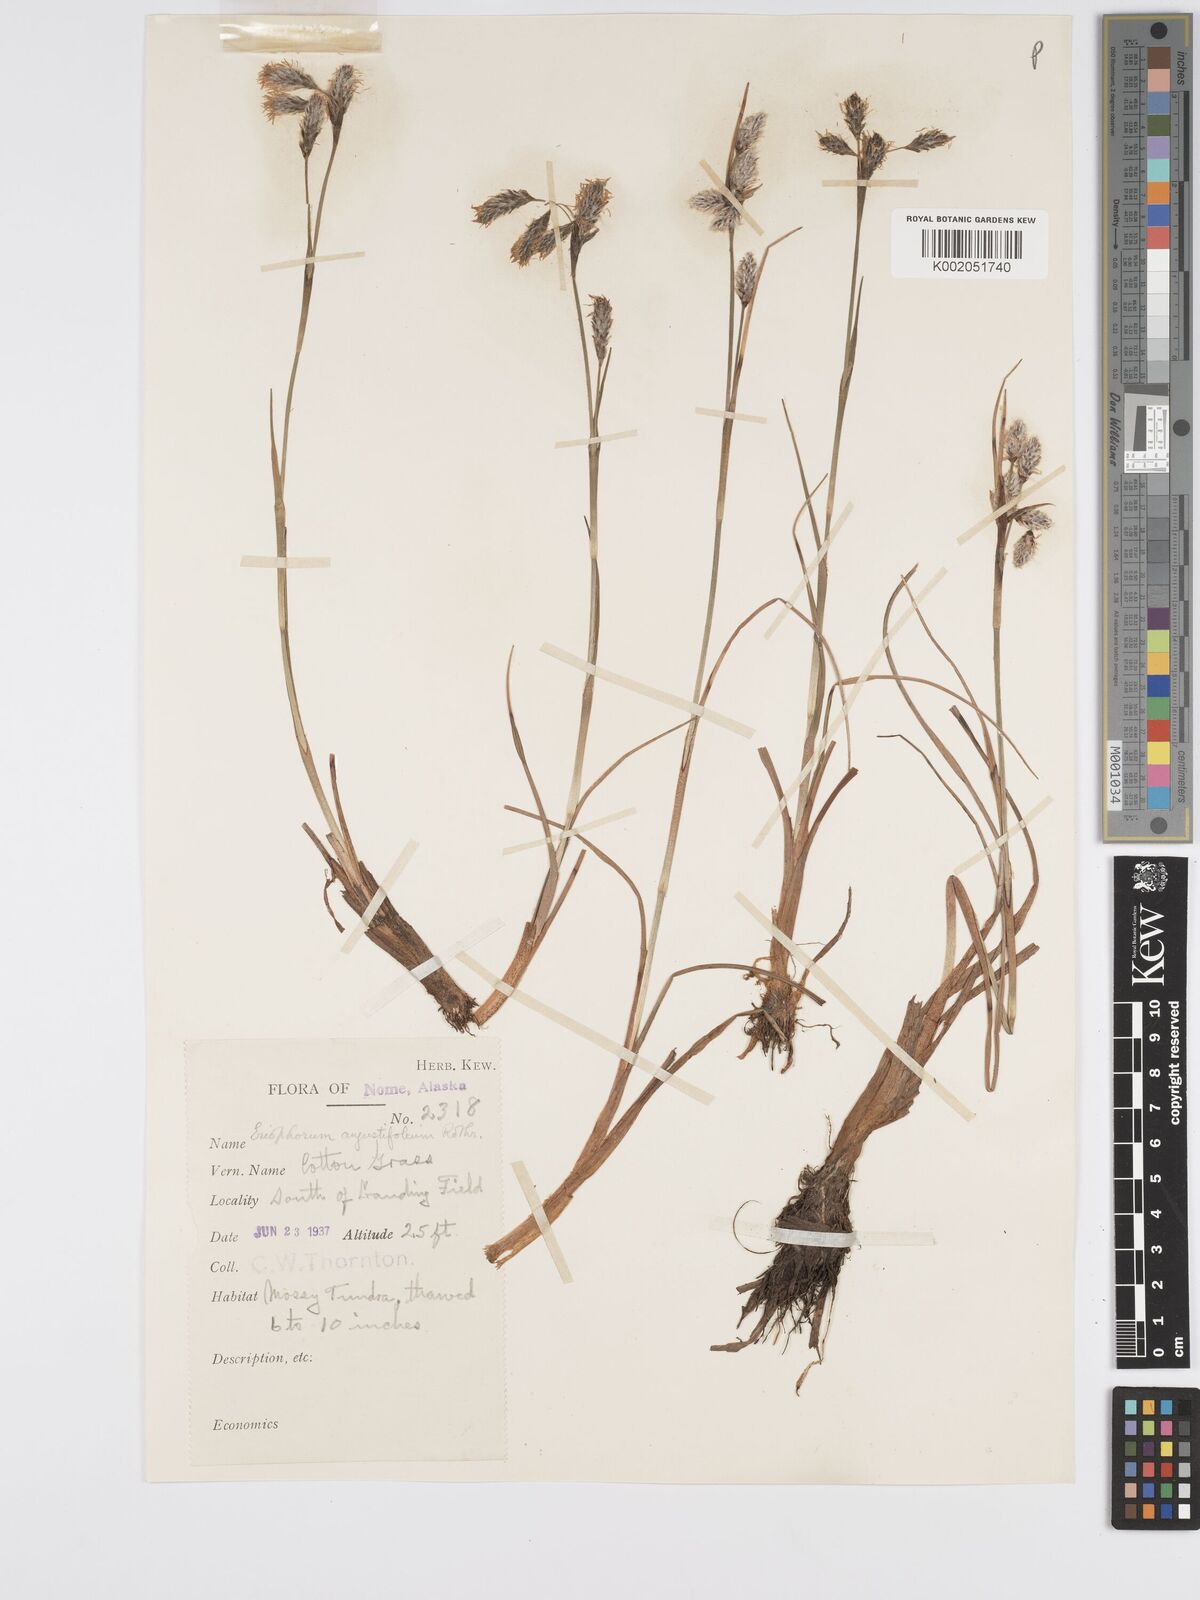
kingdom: Plantae
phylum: Tracheophyta
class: Liliopsida
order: Poales
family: Cyperaceae
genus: Eriophorum
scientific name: Eriophorum angustifolium
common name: Common cottongrass
